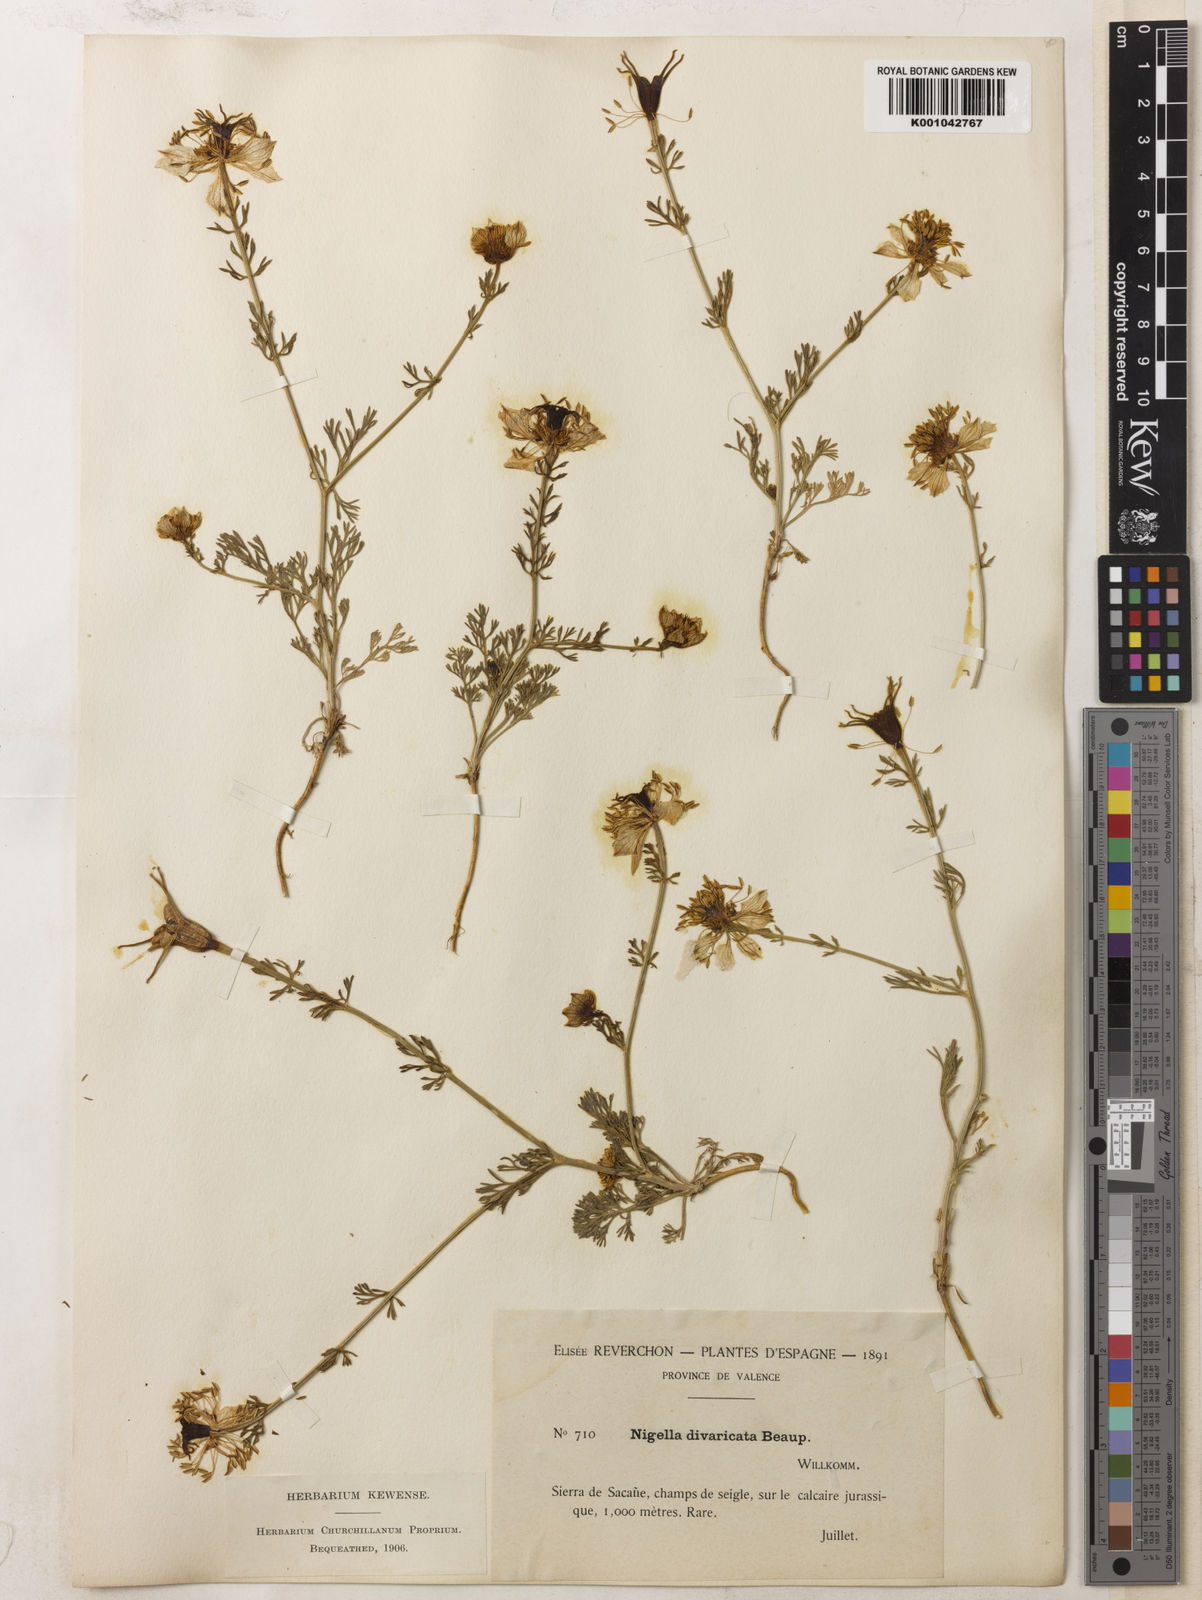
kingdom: Plantae
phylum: Tracheophyta
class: Magnoliopsida
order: Ranunculales
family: Ranunculaceae
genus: Nigella
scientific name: Nigella hispanica
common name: Fennel-flower
